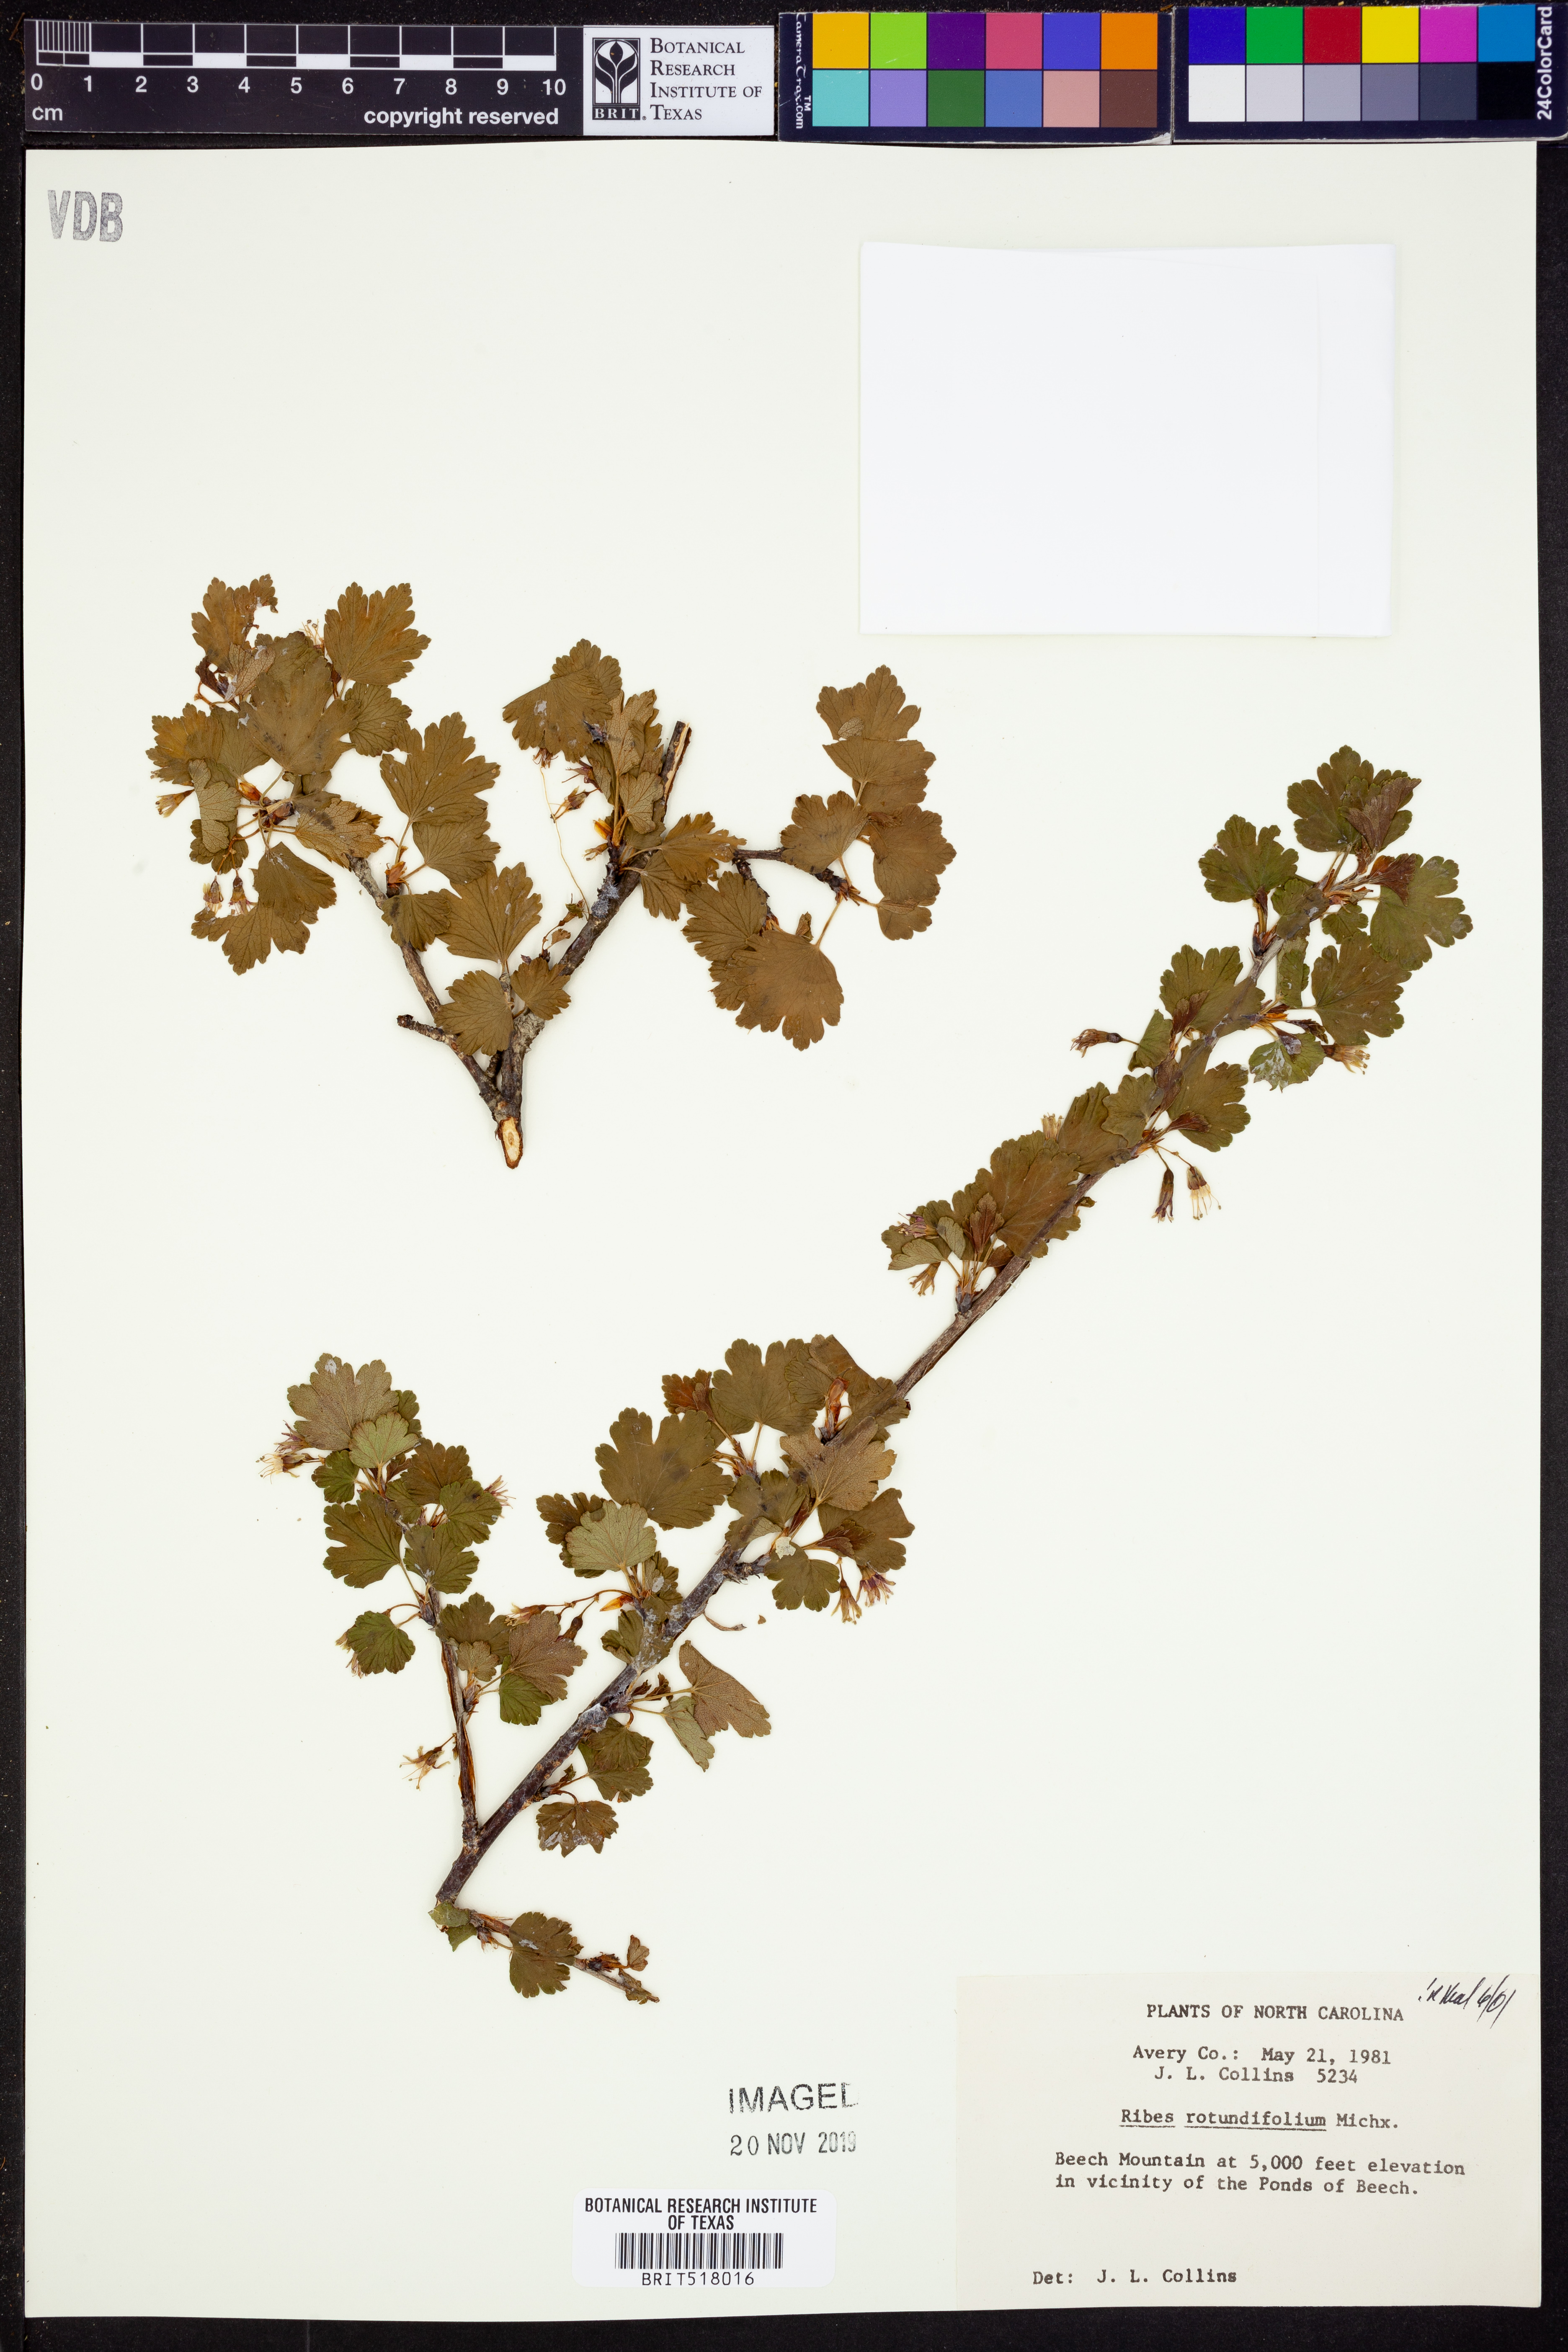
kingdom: Plantae
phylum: Tracheophyta
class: Magnoliopsida
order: Saxifragales
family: Grossulariaceae
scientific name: Grossulariaceae
